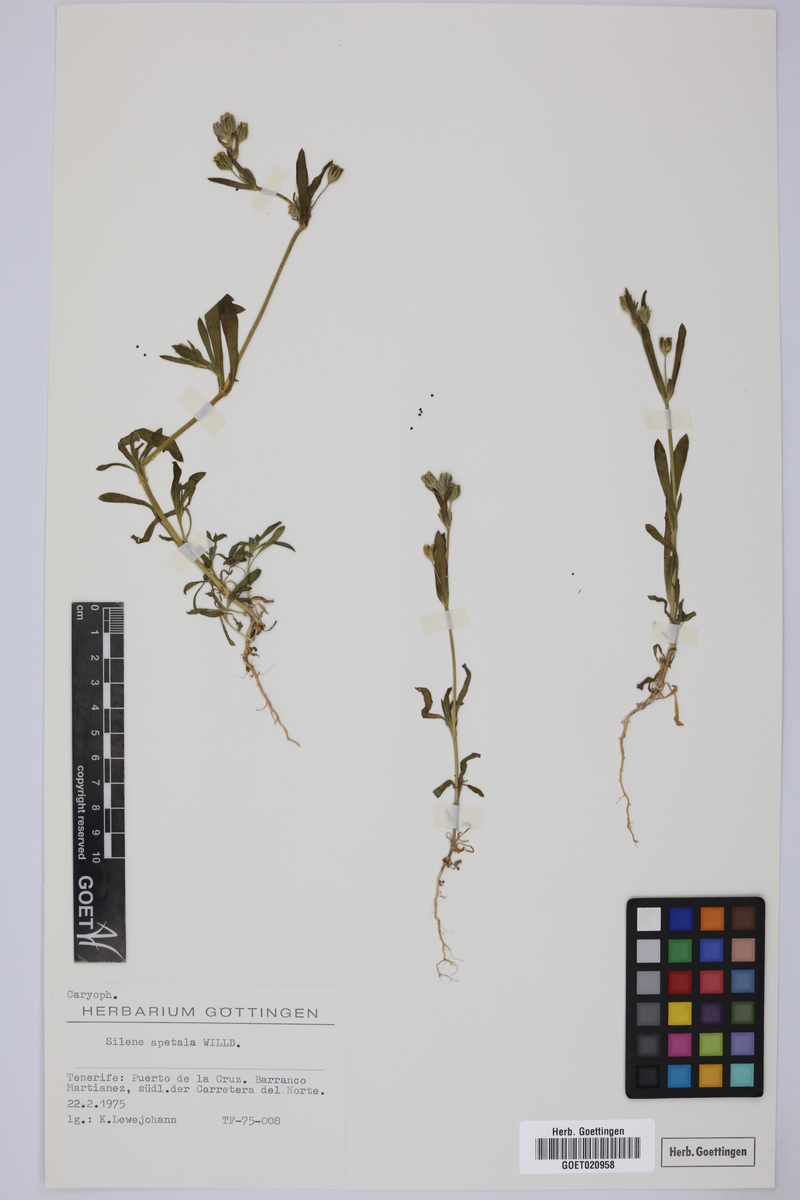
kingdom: Plantae
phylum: Tracheophyta
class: Magnoliopsida
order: Caryophyllales
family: Caryophyllaceae
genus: Silene
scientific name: Silene apetala
